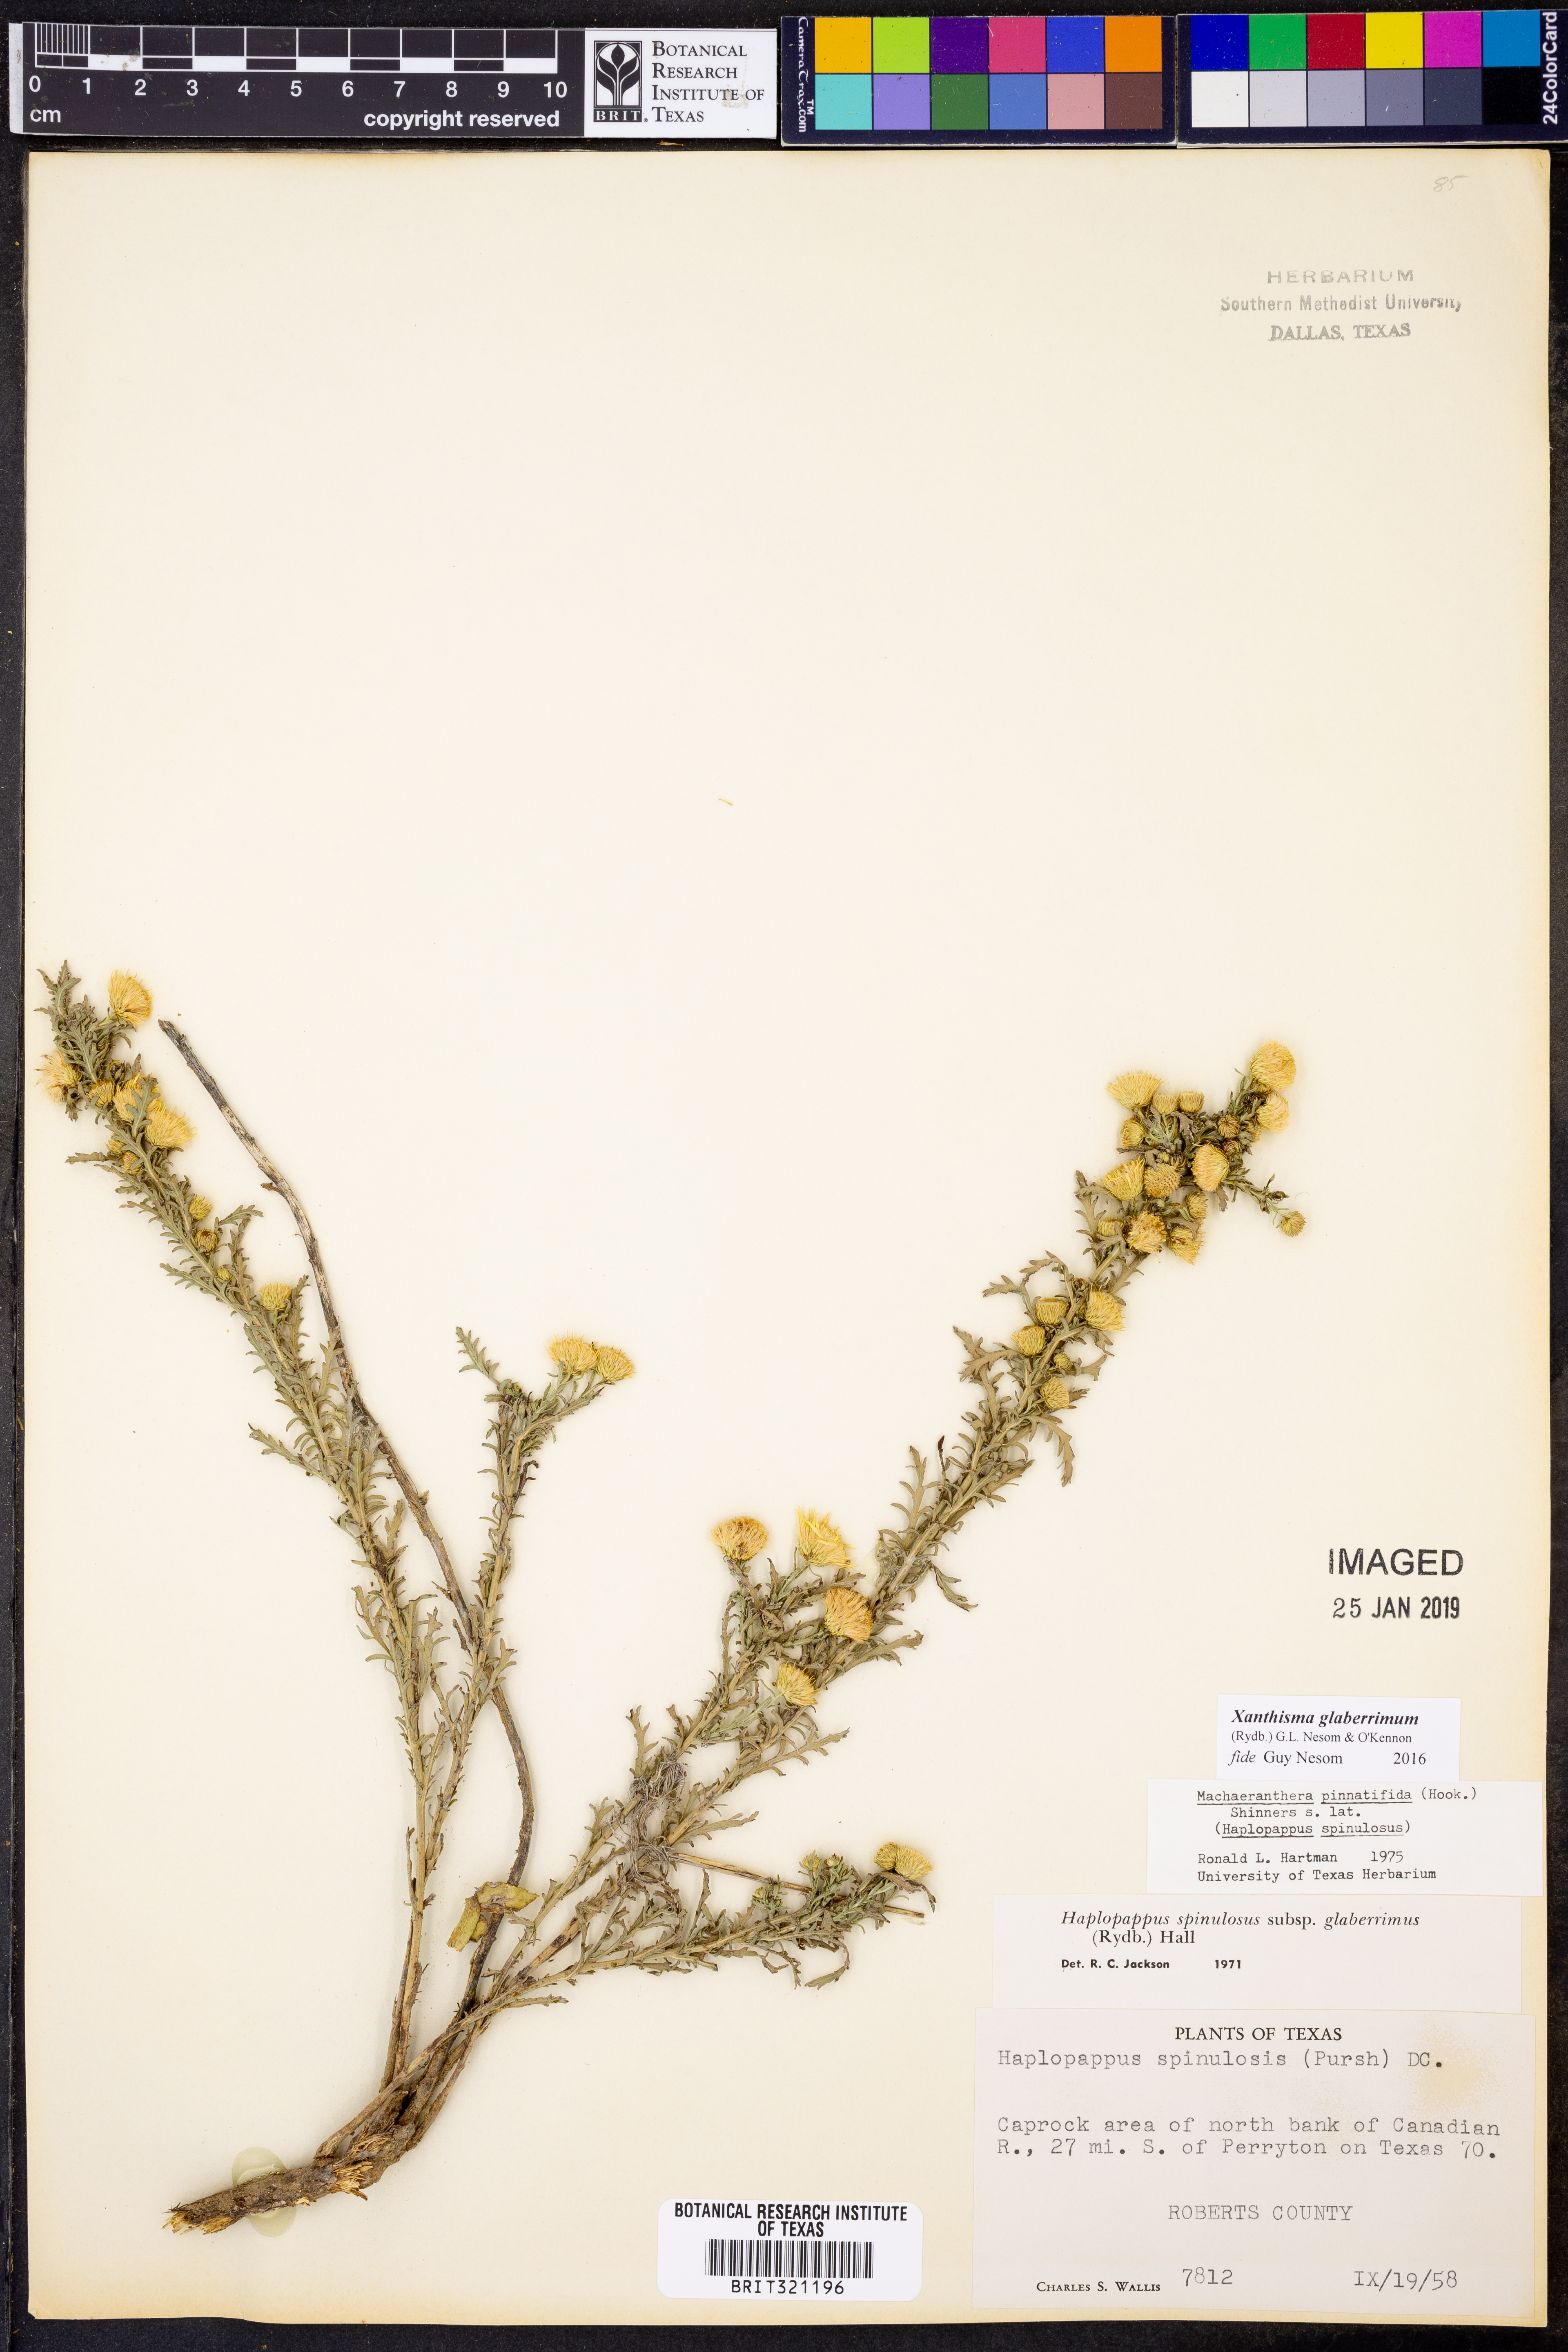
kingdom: Plantae
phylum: Tracheophyta
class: Magnoliopsida
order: Asterales
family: Asteraceae
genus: Xanthisma
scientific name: Xanthisma spinulosum
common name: Spiny goldenweed
